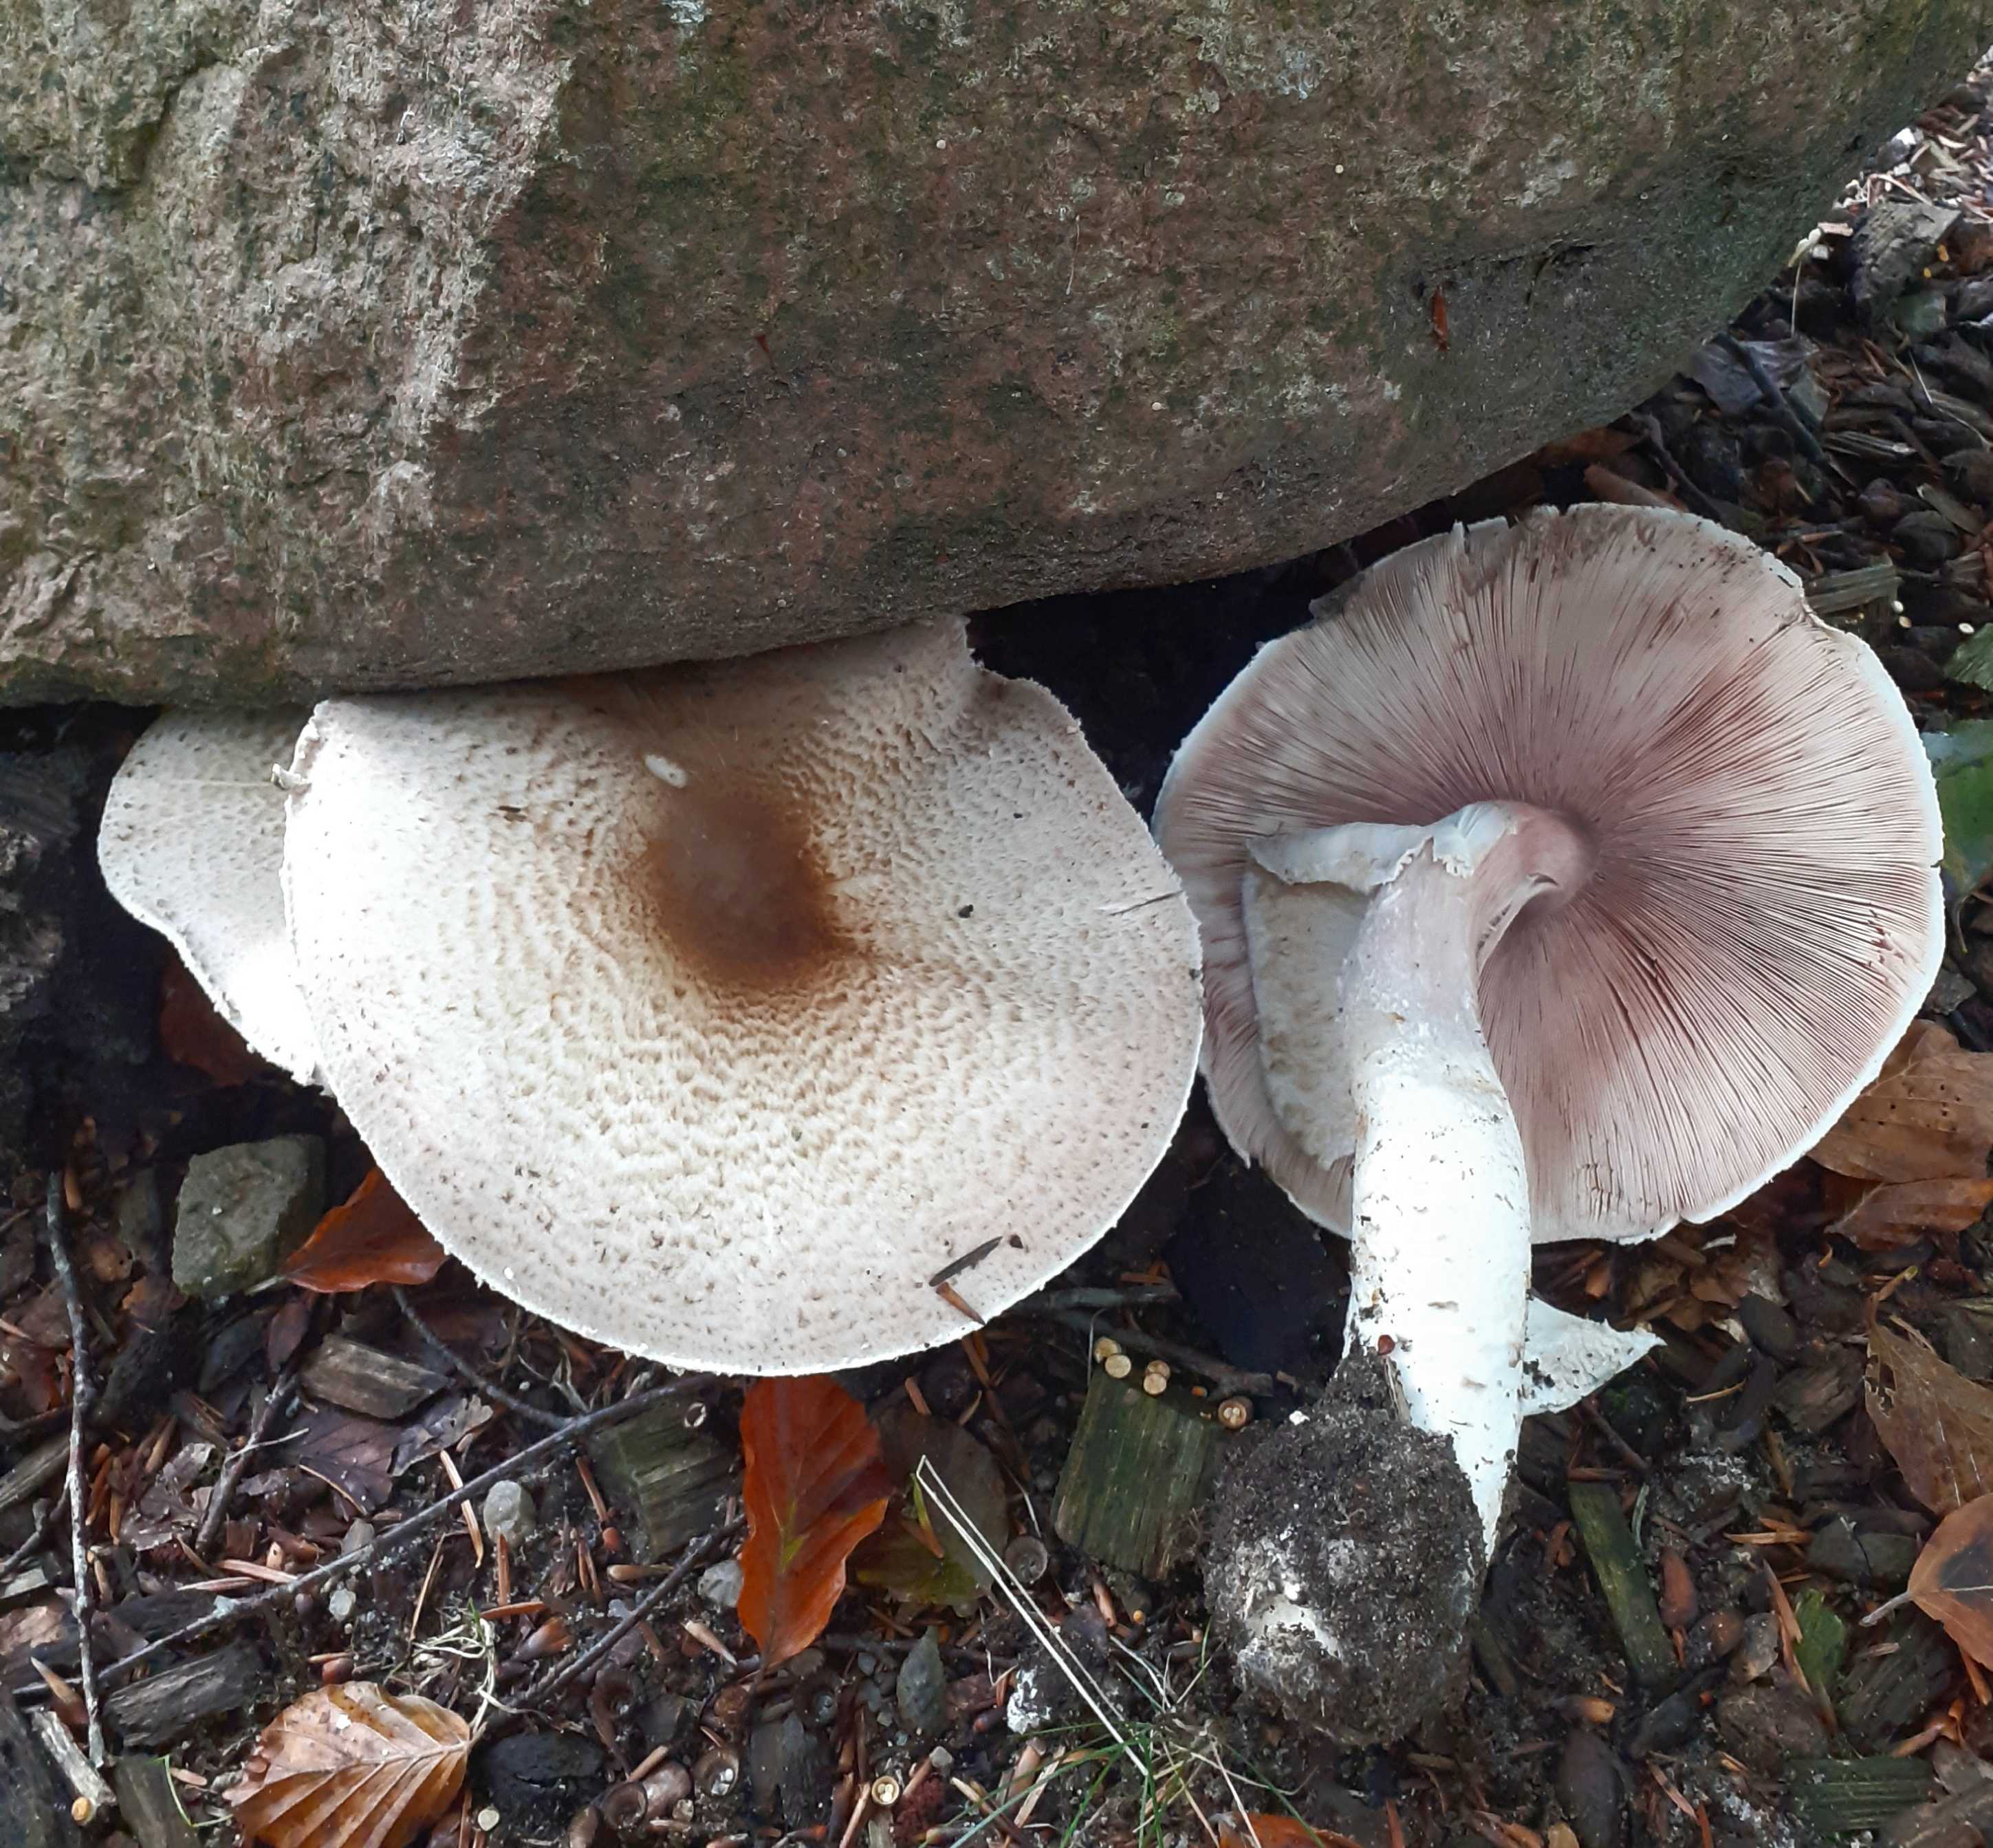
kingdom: Fungi
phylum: Basidiomycota
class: Agaricomycetes
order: Agaricales
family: Agaricaceae
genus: Agaricus
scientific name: Agaricus augustus
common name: prægtig champignon
